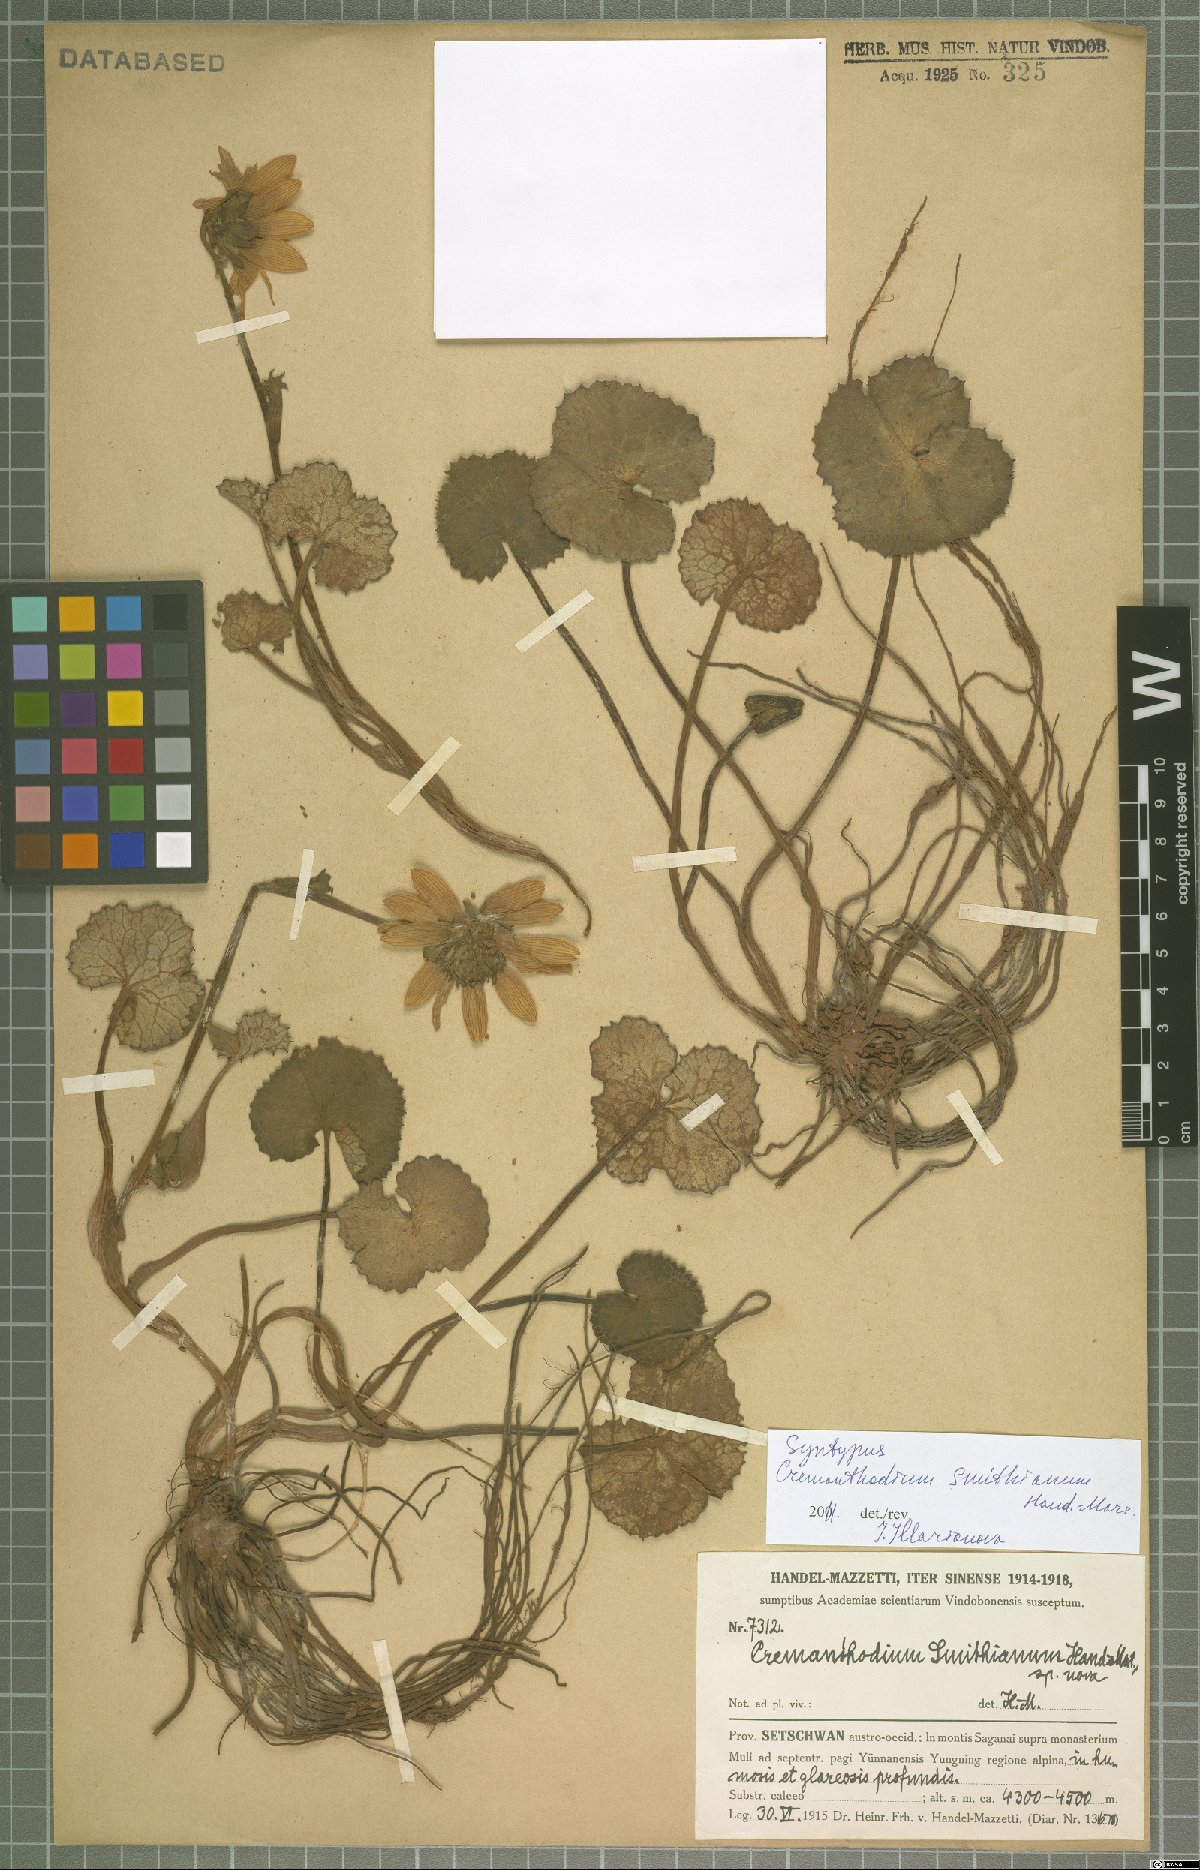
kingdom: Plantae
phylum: Tracheophyta
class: Magnoliopsida
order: Asterales
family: Asteraceae
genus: Cremanthodium
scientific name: Cremanthodium smithianum
